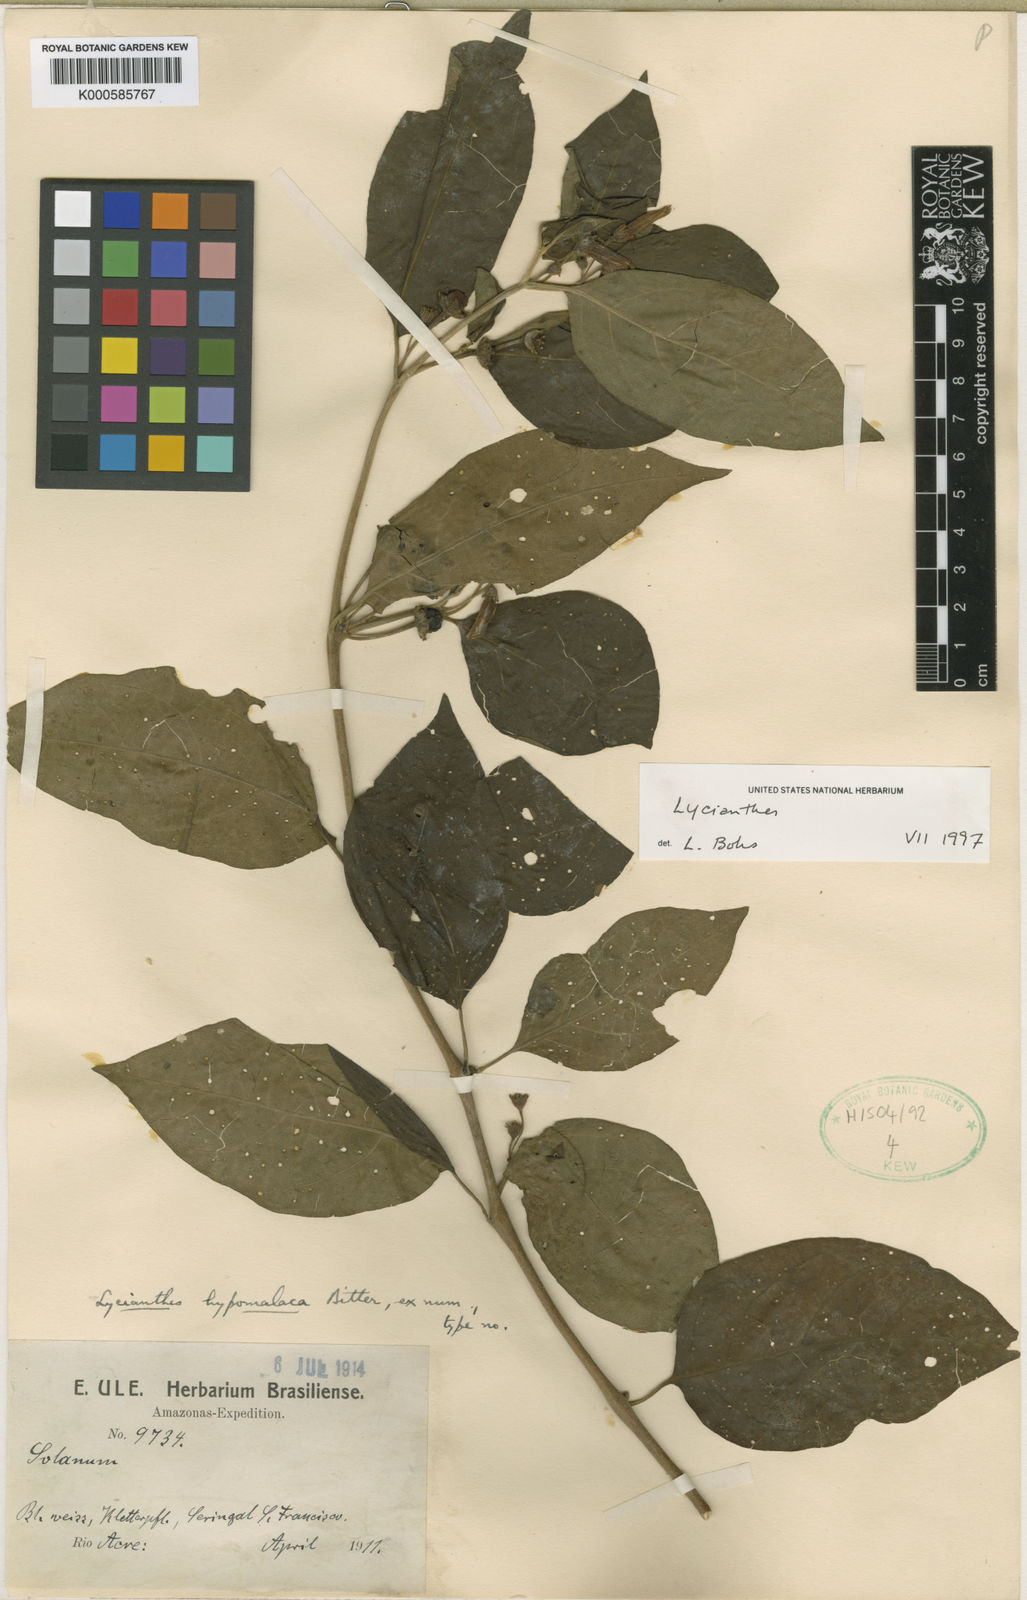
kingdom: Plantae
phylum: Tracheophyta
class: Magnoliopsida
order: Solanales
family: Solanaceae
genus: Lycianthes
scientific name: Lycianthes
